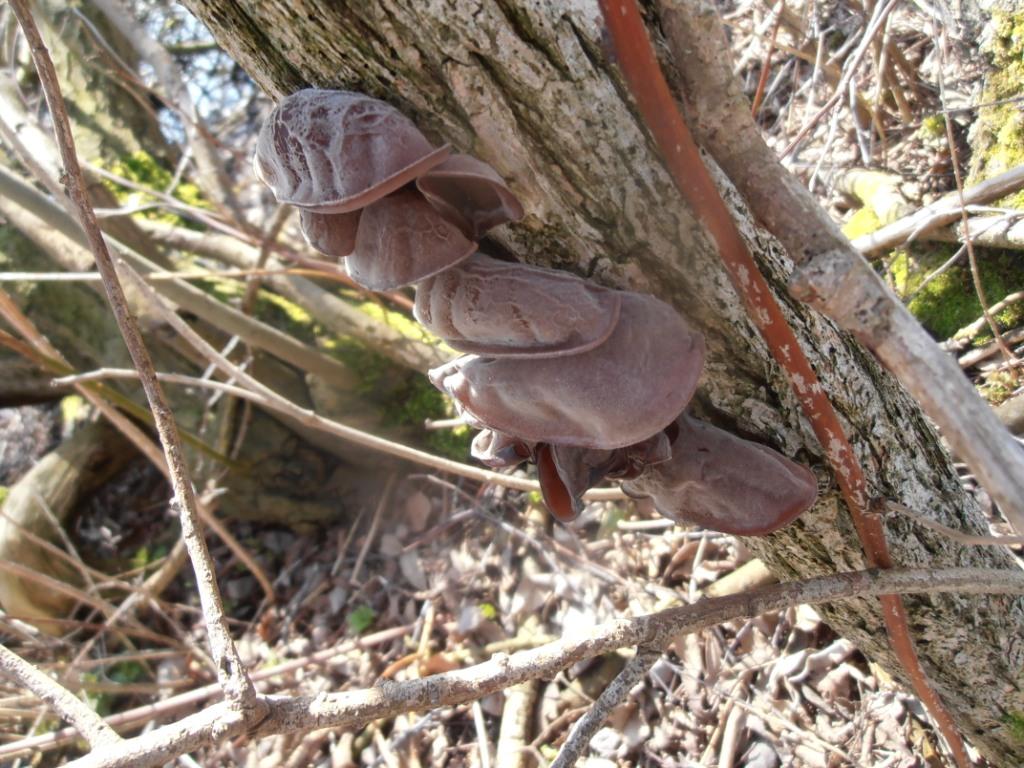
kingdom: Fungi
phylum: Basidiomycota
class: Agaricomycetes
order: Auriculariales
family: Auriculariaceae
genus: Auricularia
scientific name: Auricularia auricula-judae
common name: almindelig judasøre
